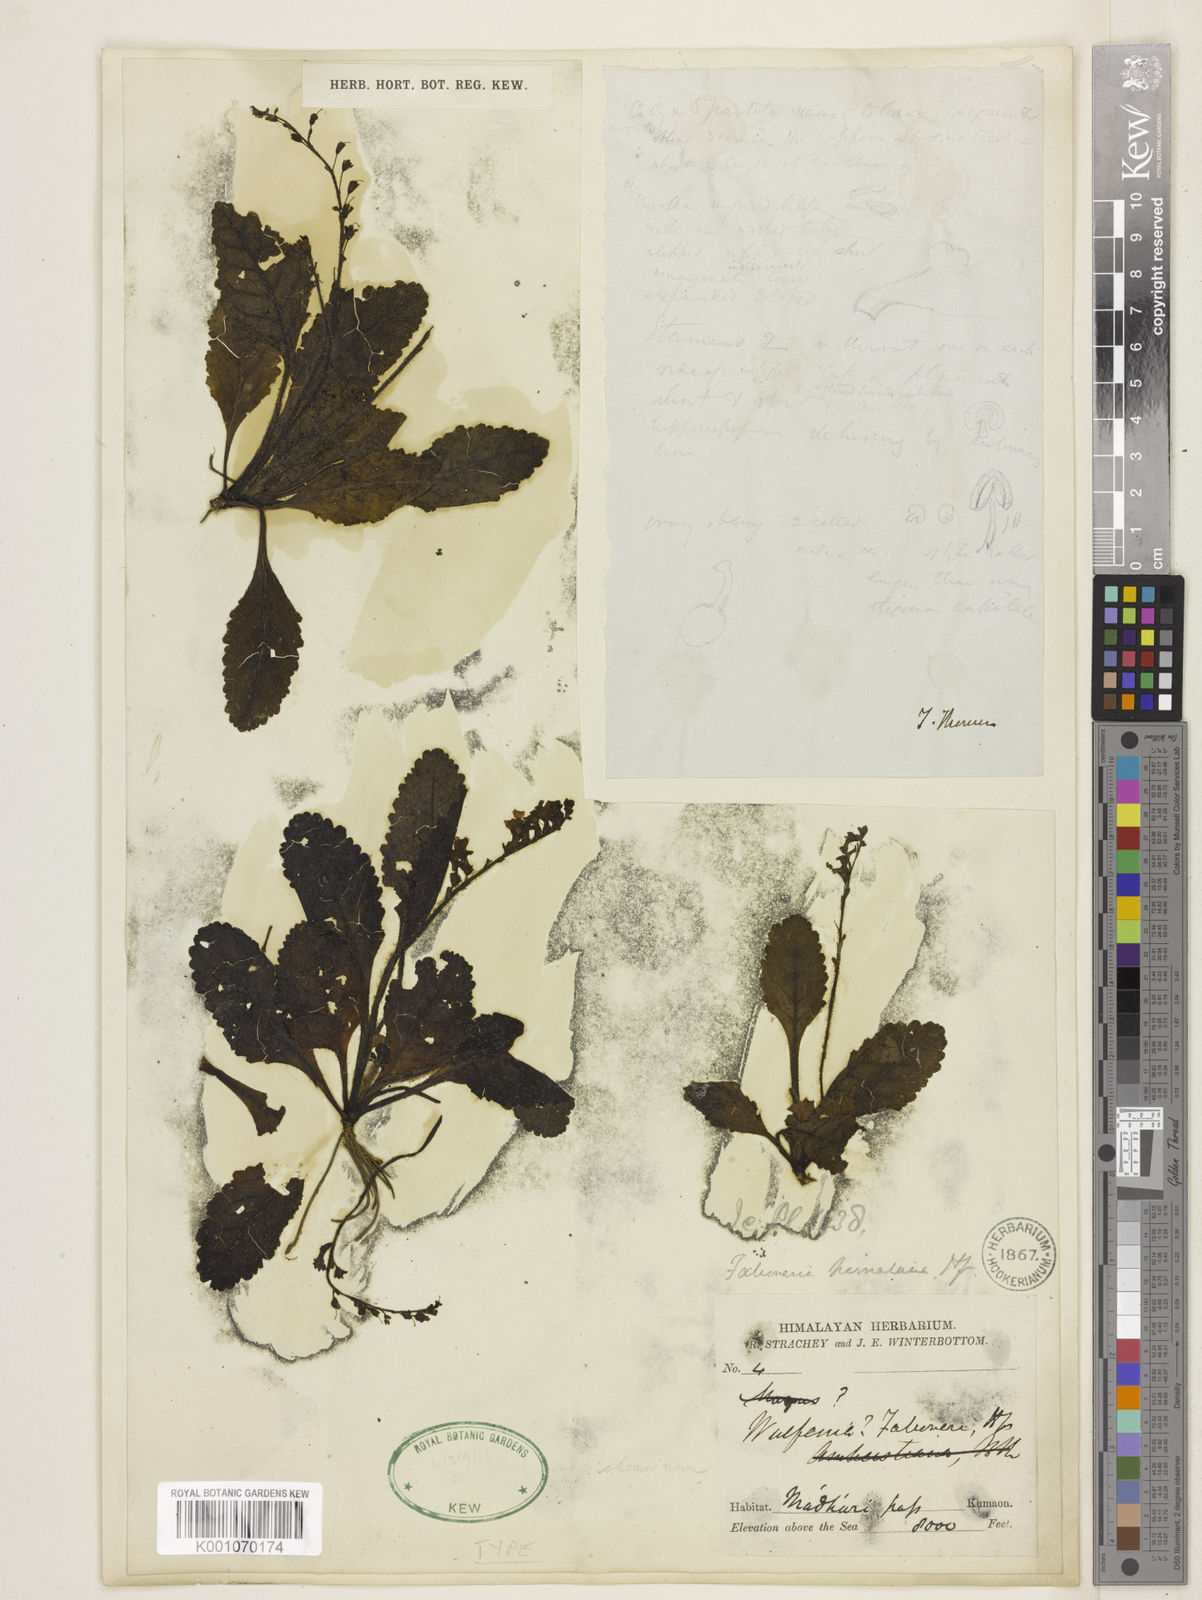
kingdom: Plantae
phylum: Tracheophyta
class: Magnoliopsida
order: Lamiales
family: Plantaginaceae
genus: Kashmiria
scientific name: Kashmiria himalaica
